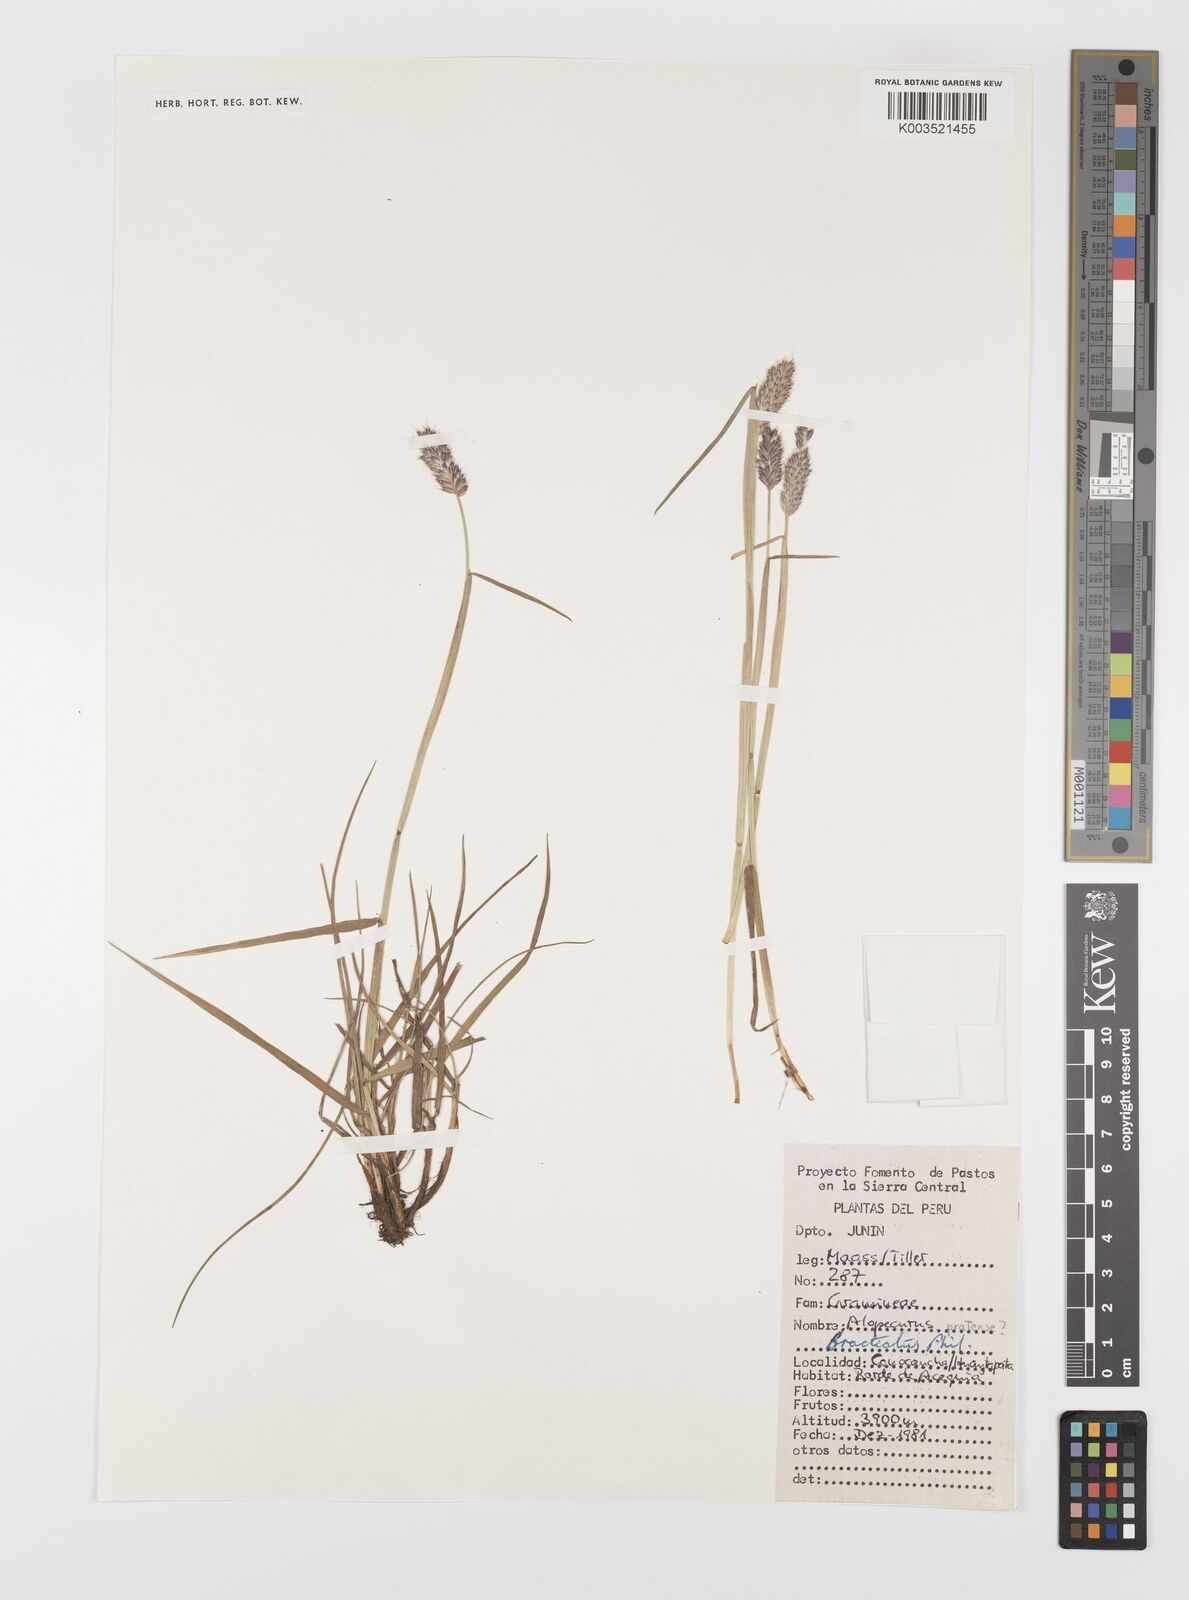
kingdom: Plantae
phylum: Tracheophyta
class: Liliopsida
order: Poales
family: Poaceae
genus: Alopecurus
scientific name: Alopecurus magellanicus
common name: Alpine foxtail
